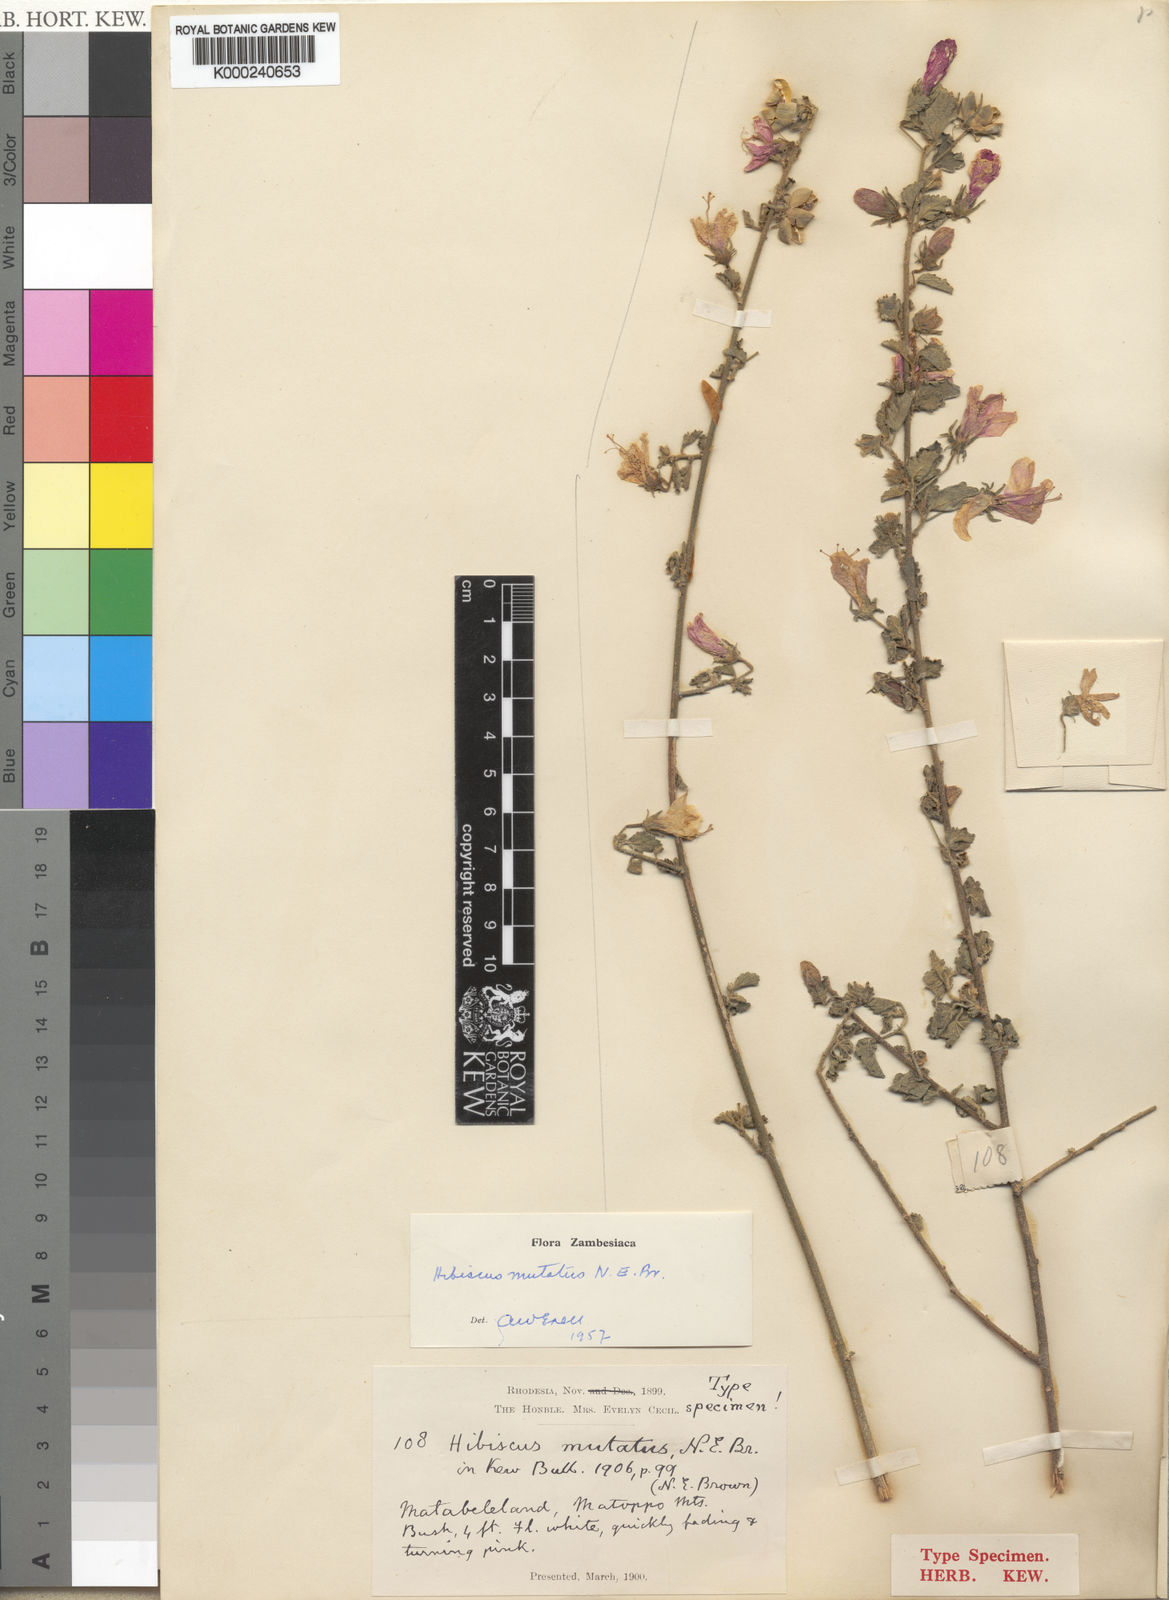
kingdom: Plantae
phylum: Tracheophyta
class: Magnoliopsida
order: Malvales
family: Malvaceae
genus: Hibiscus
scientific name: Hibiscus mutatus
